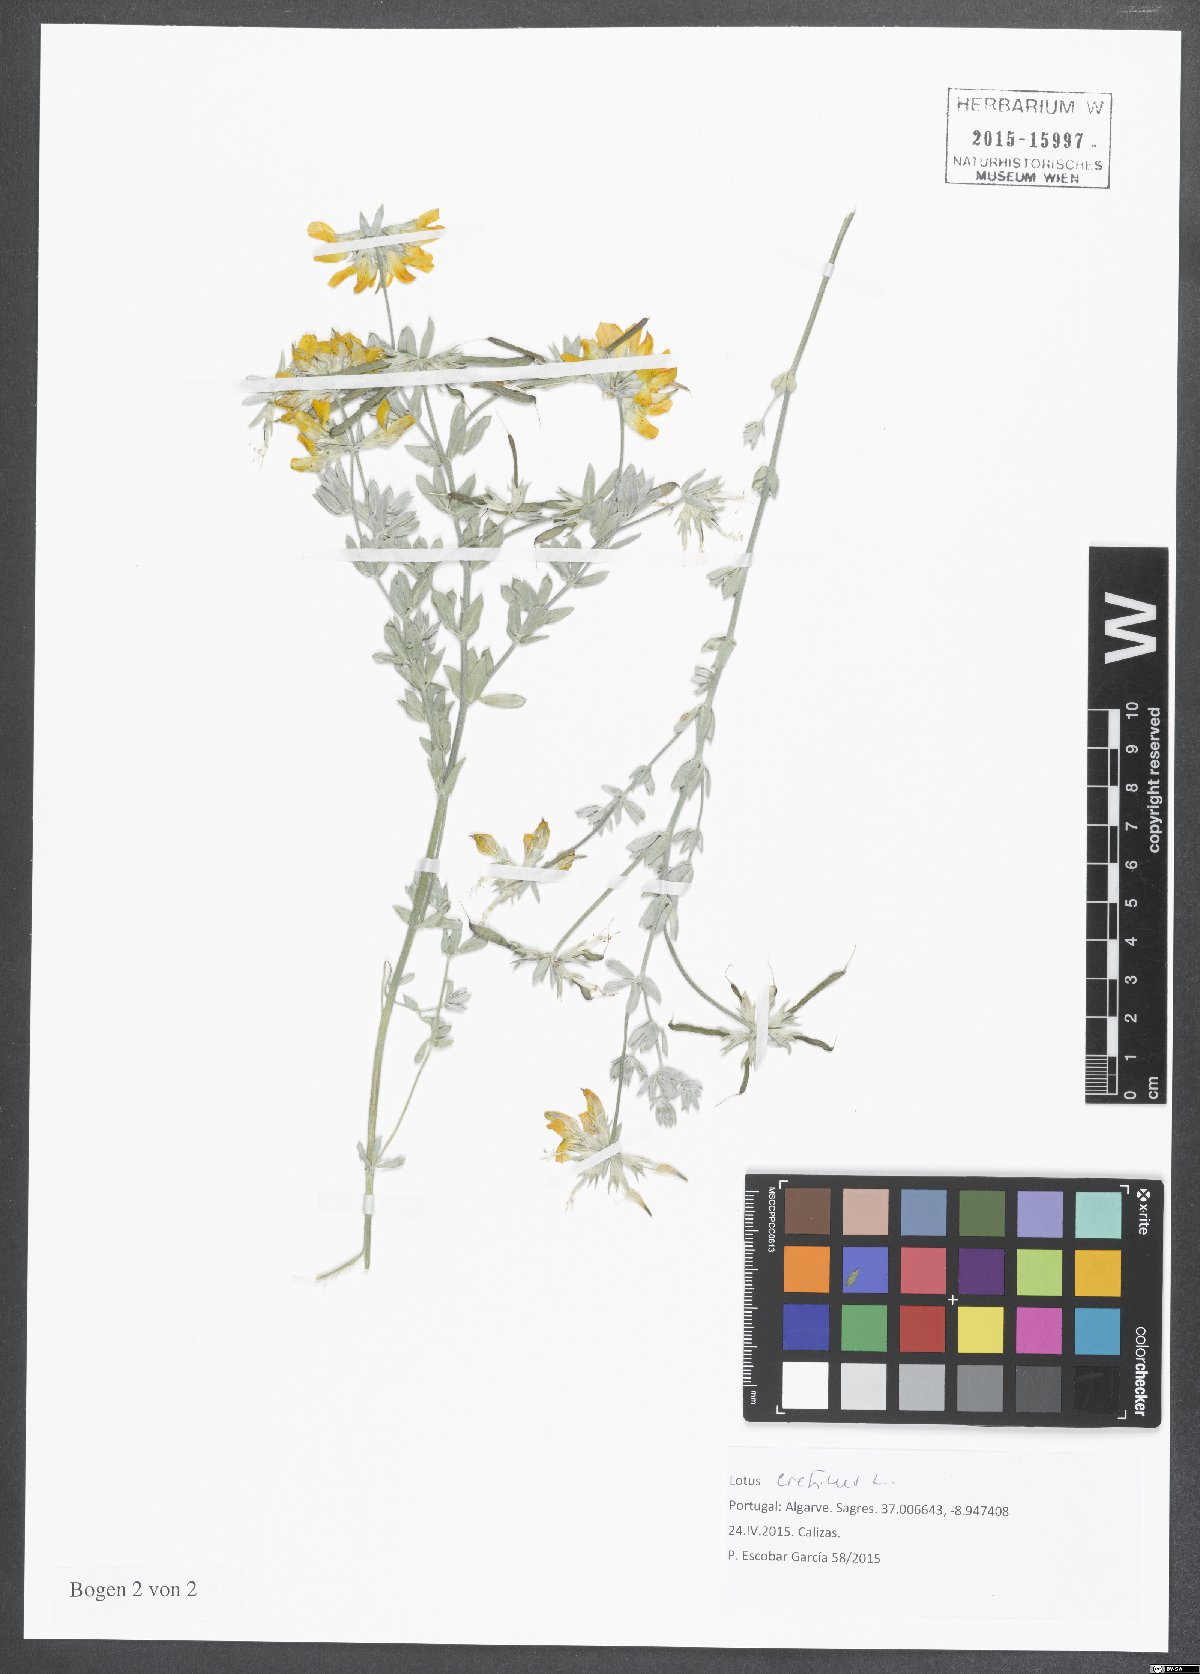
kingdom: Plantae
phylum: Tracheophyta
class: Magnoliopsida
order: Fabales
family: Fabaceae
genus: Lotus
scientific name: Lotus creticus
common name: Cretan bird's-foot trefoil
